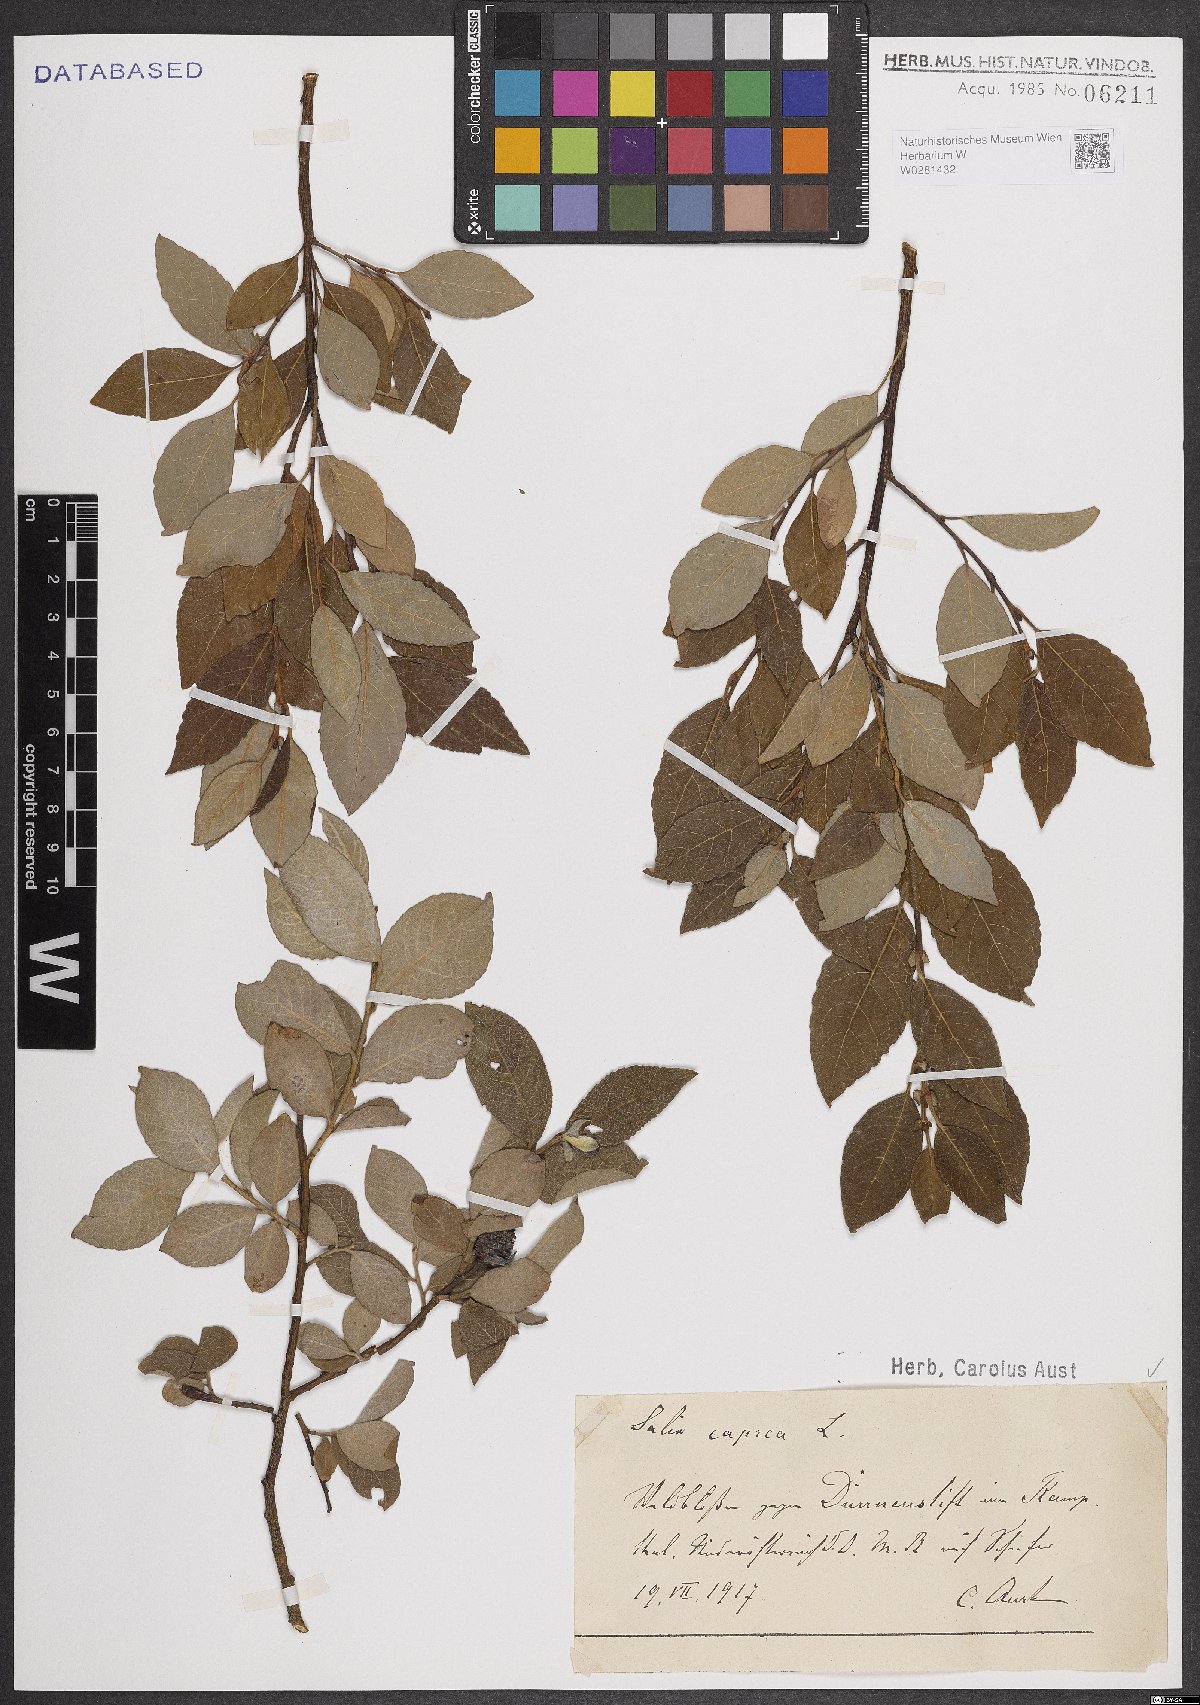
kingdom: Plantae
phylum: Tracheophyta
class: Magnoliopsida
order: Malpighiales
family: Salicaceae
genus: Salix
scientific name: Salix caprea
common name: Goat willow
